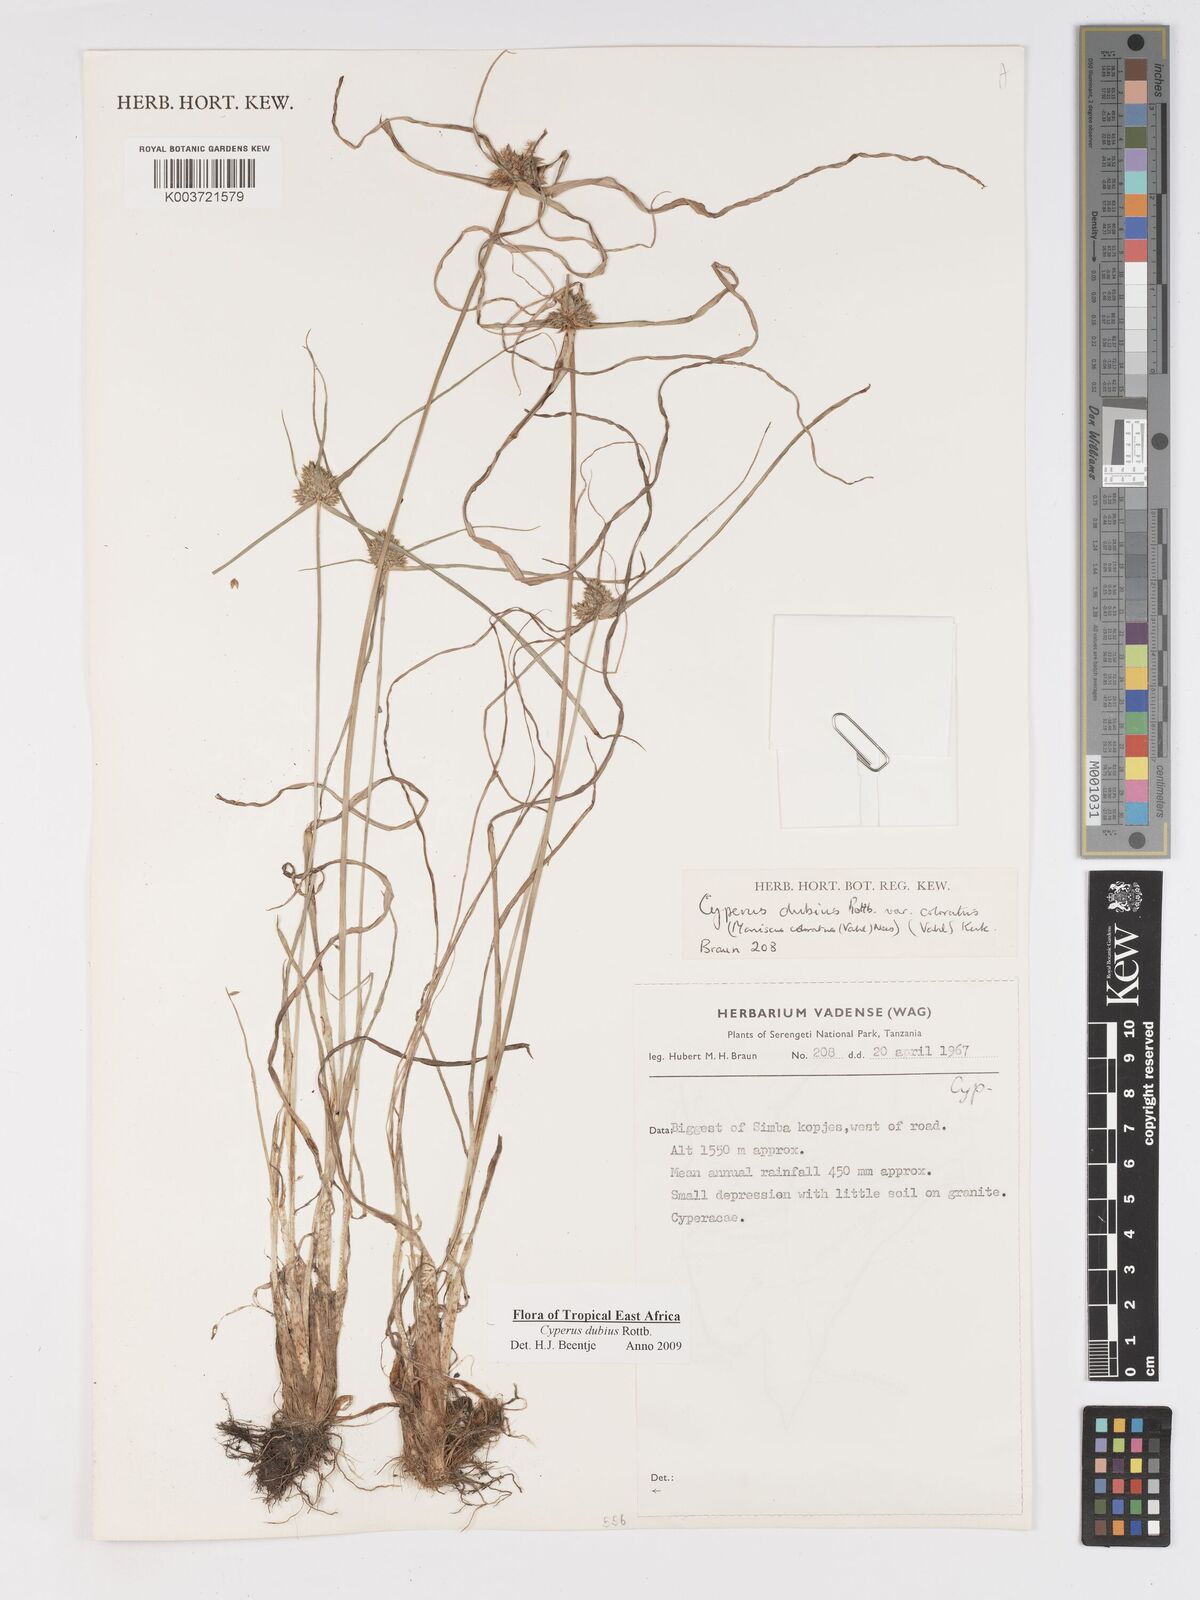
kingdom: Plantae
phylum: Tracheophyta
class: Liliopsida
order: Poales
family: Cyperaceae
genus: Cyperus
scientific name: Cyperus dubius
